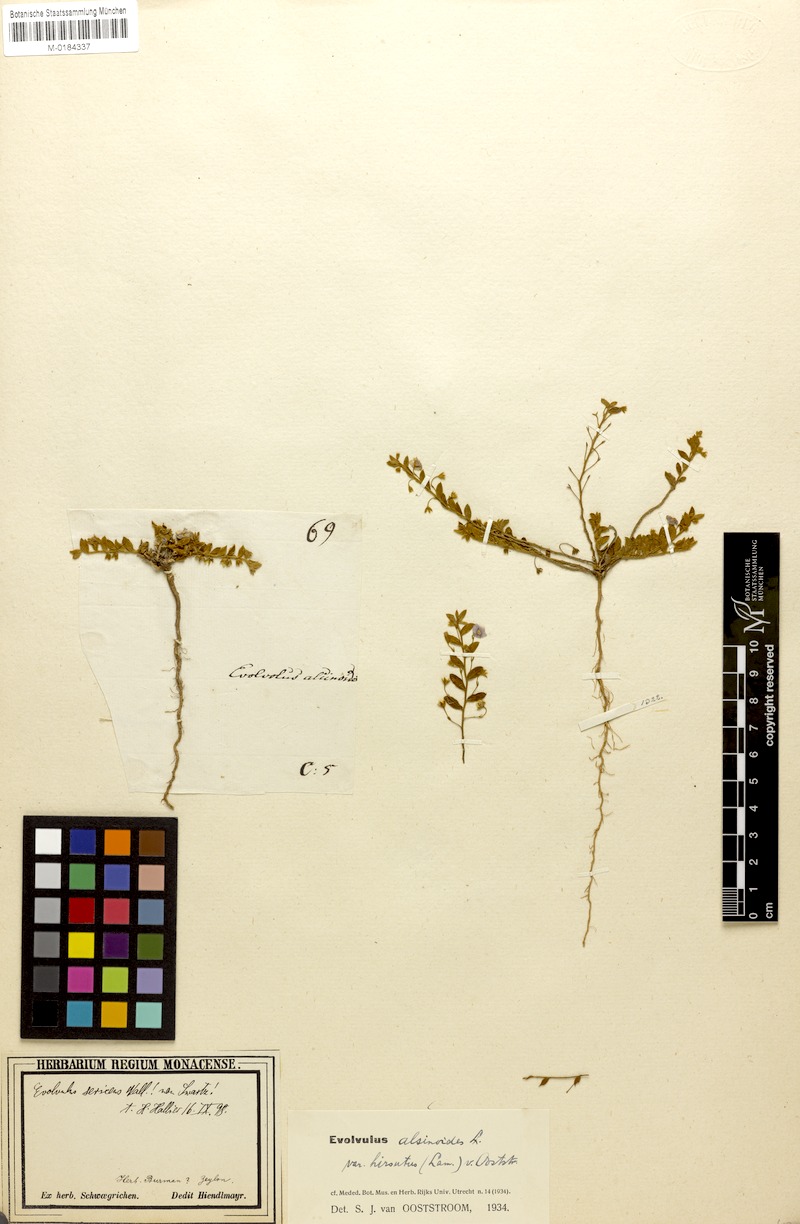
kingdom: Plantae
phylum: Tracheophyta
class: Magnoliopsida
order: Solanales
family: Convolvulaceae
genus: Evolvulus
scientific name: Evolvulus alsinoides
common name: Slender dwarf morning-glory
